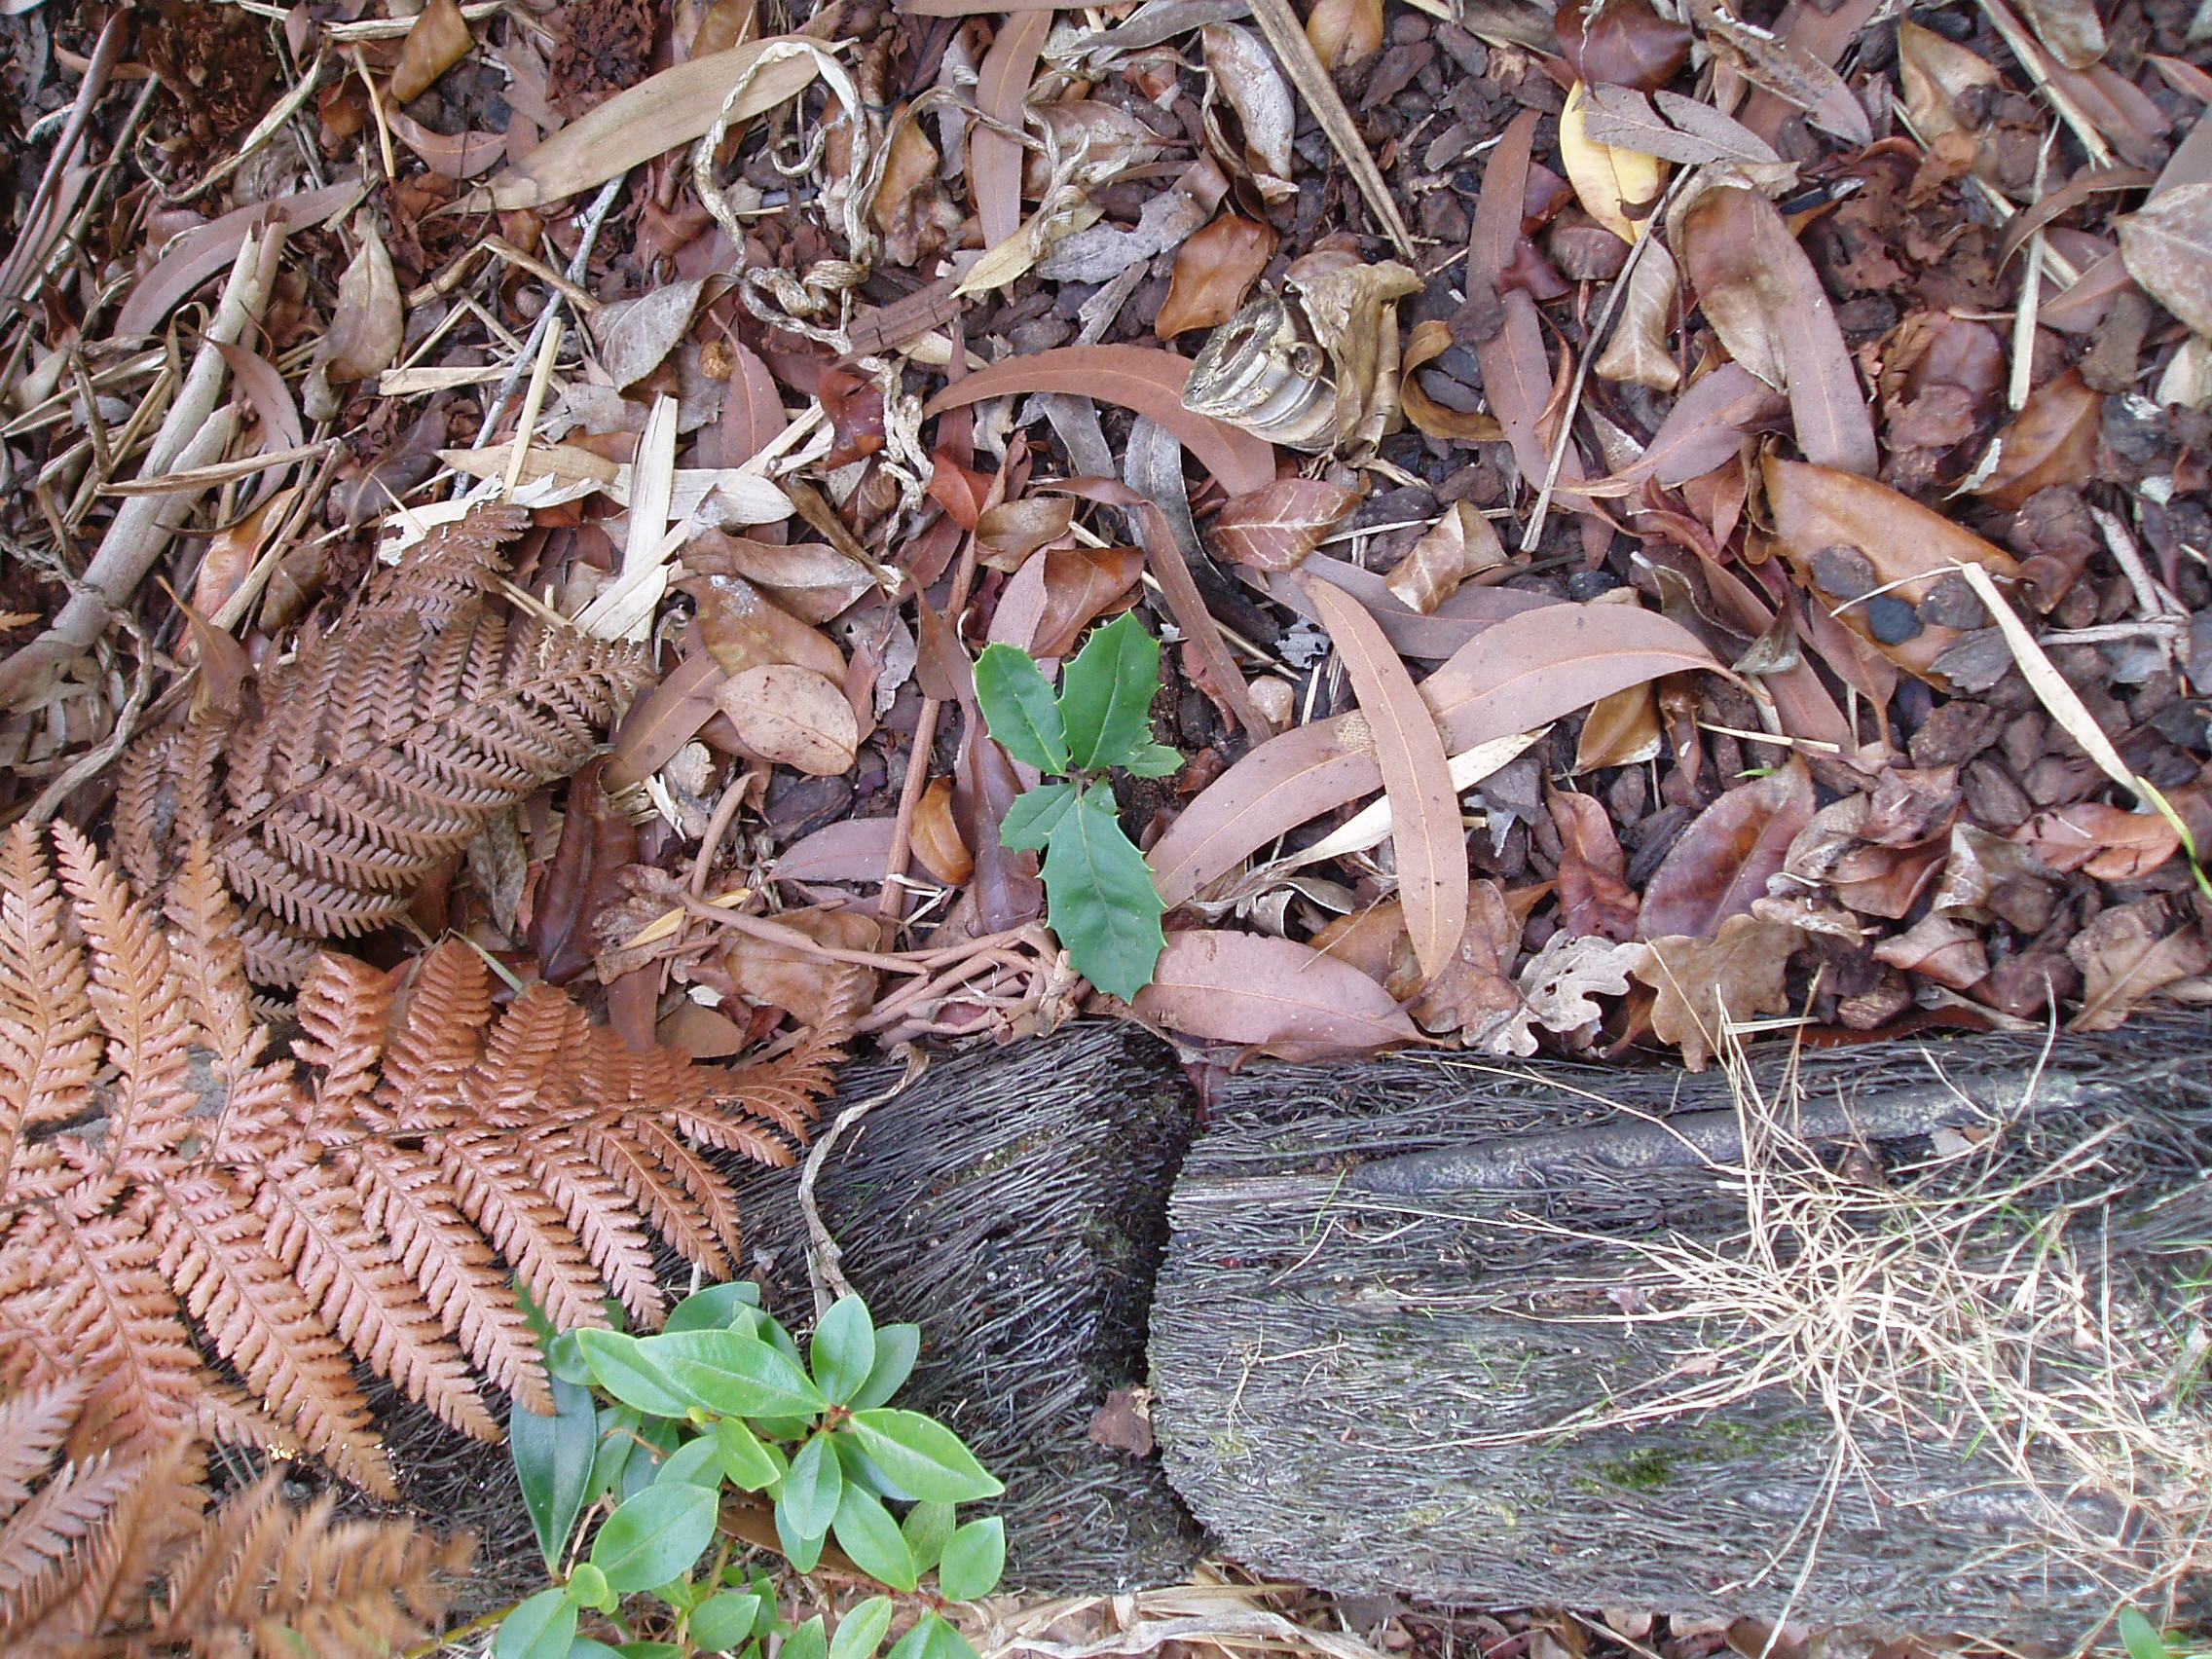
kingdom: Plantae
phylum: Tracheophyta
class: Magnoliopsida
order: Aquifoliales
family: Aquifoliaceae
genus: Ilex
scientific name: Ilex opaca
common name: American holly
